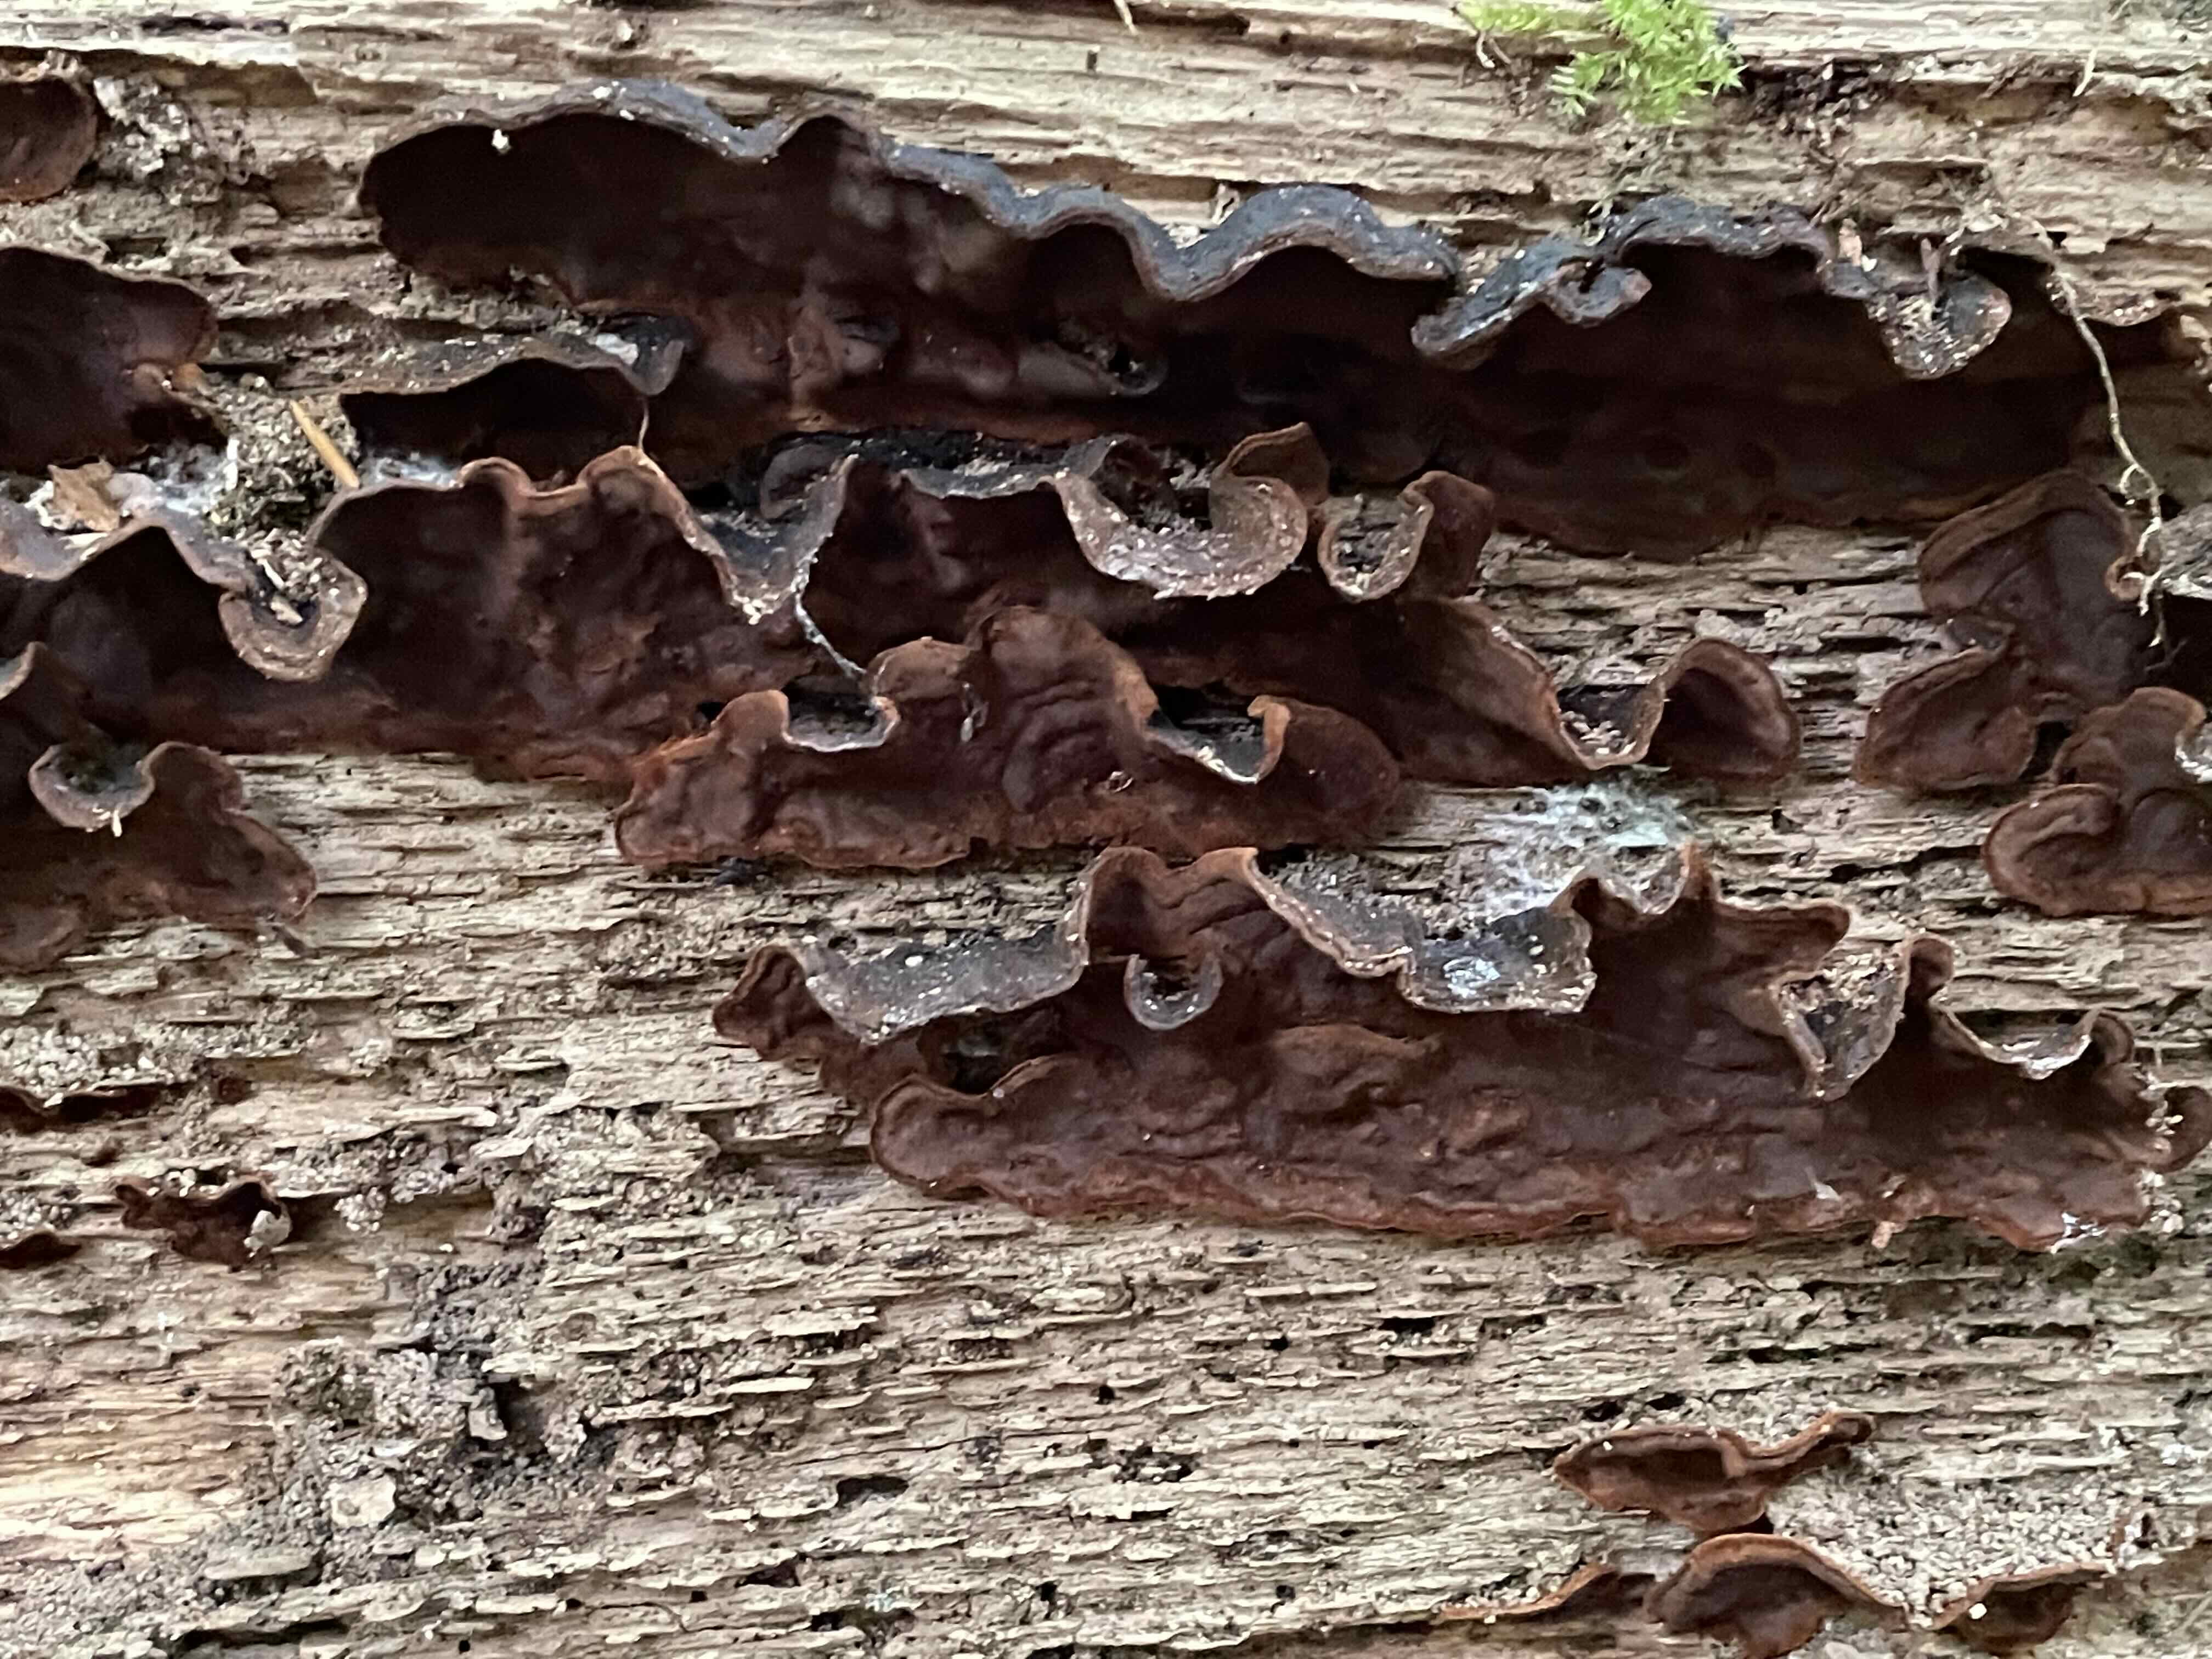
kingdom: Fungi
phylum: Basidiomycota
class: Agaricomycetes
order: Hymenochaetales
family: Hymenochaetaceae
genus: Hymenochaete
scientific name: Hymenochaete rubiginosa
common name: stiv ruslædersvamp
